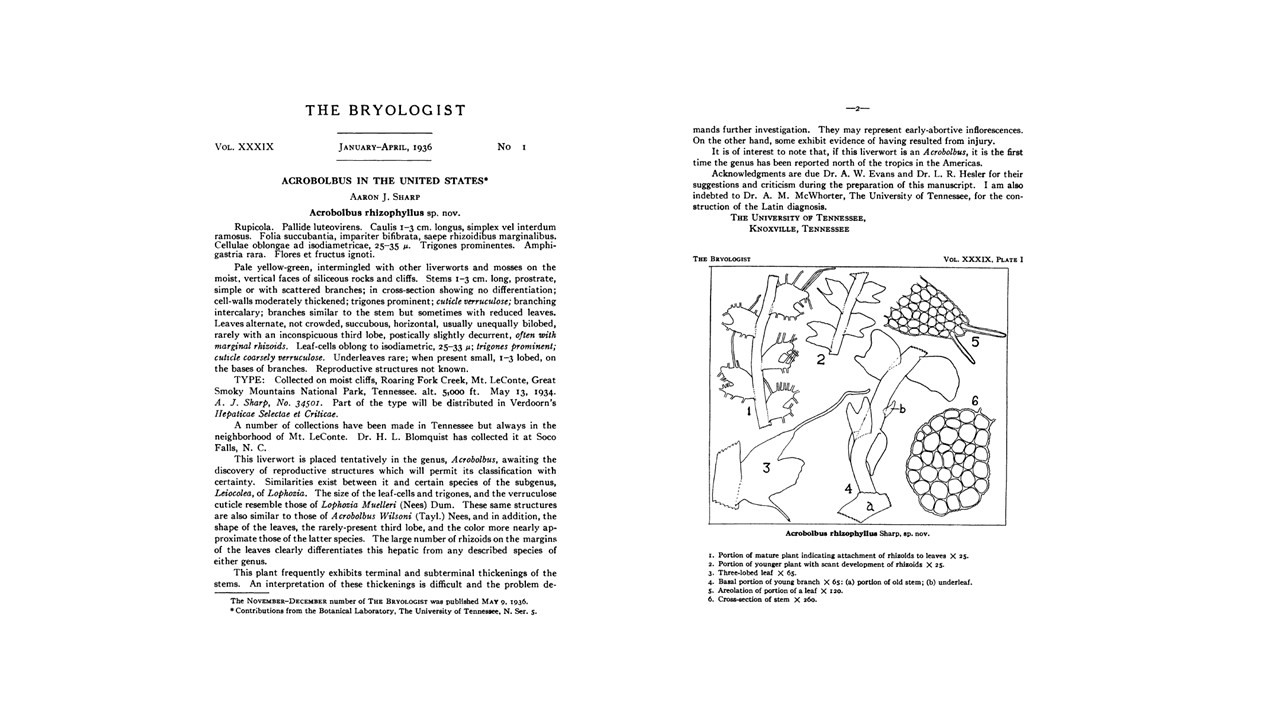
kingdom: Plantae
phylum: Marchantiophyta
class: Jungermanniopsida
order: Jungermanniales
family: Acrobolbaceae
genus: Acrobolbus
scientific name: Acrobolbus ciliatus
